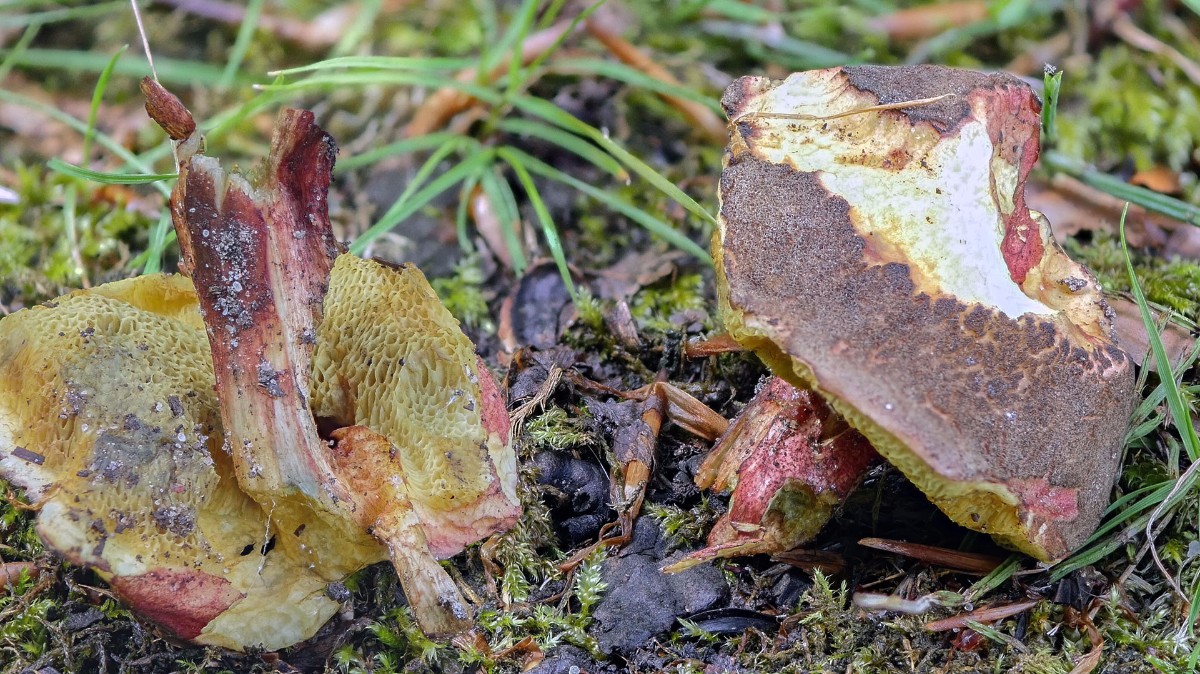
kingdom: Fungi
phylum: Basidiomycota
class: Agaricomycetes
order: Boletales
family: Boletaceae
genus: Xerocomellus
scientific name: Xerocomellus chrysenteron
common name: rødsprukken rørhat
